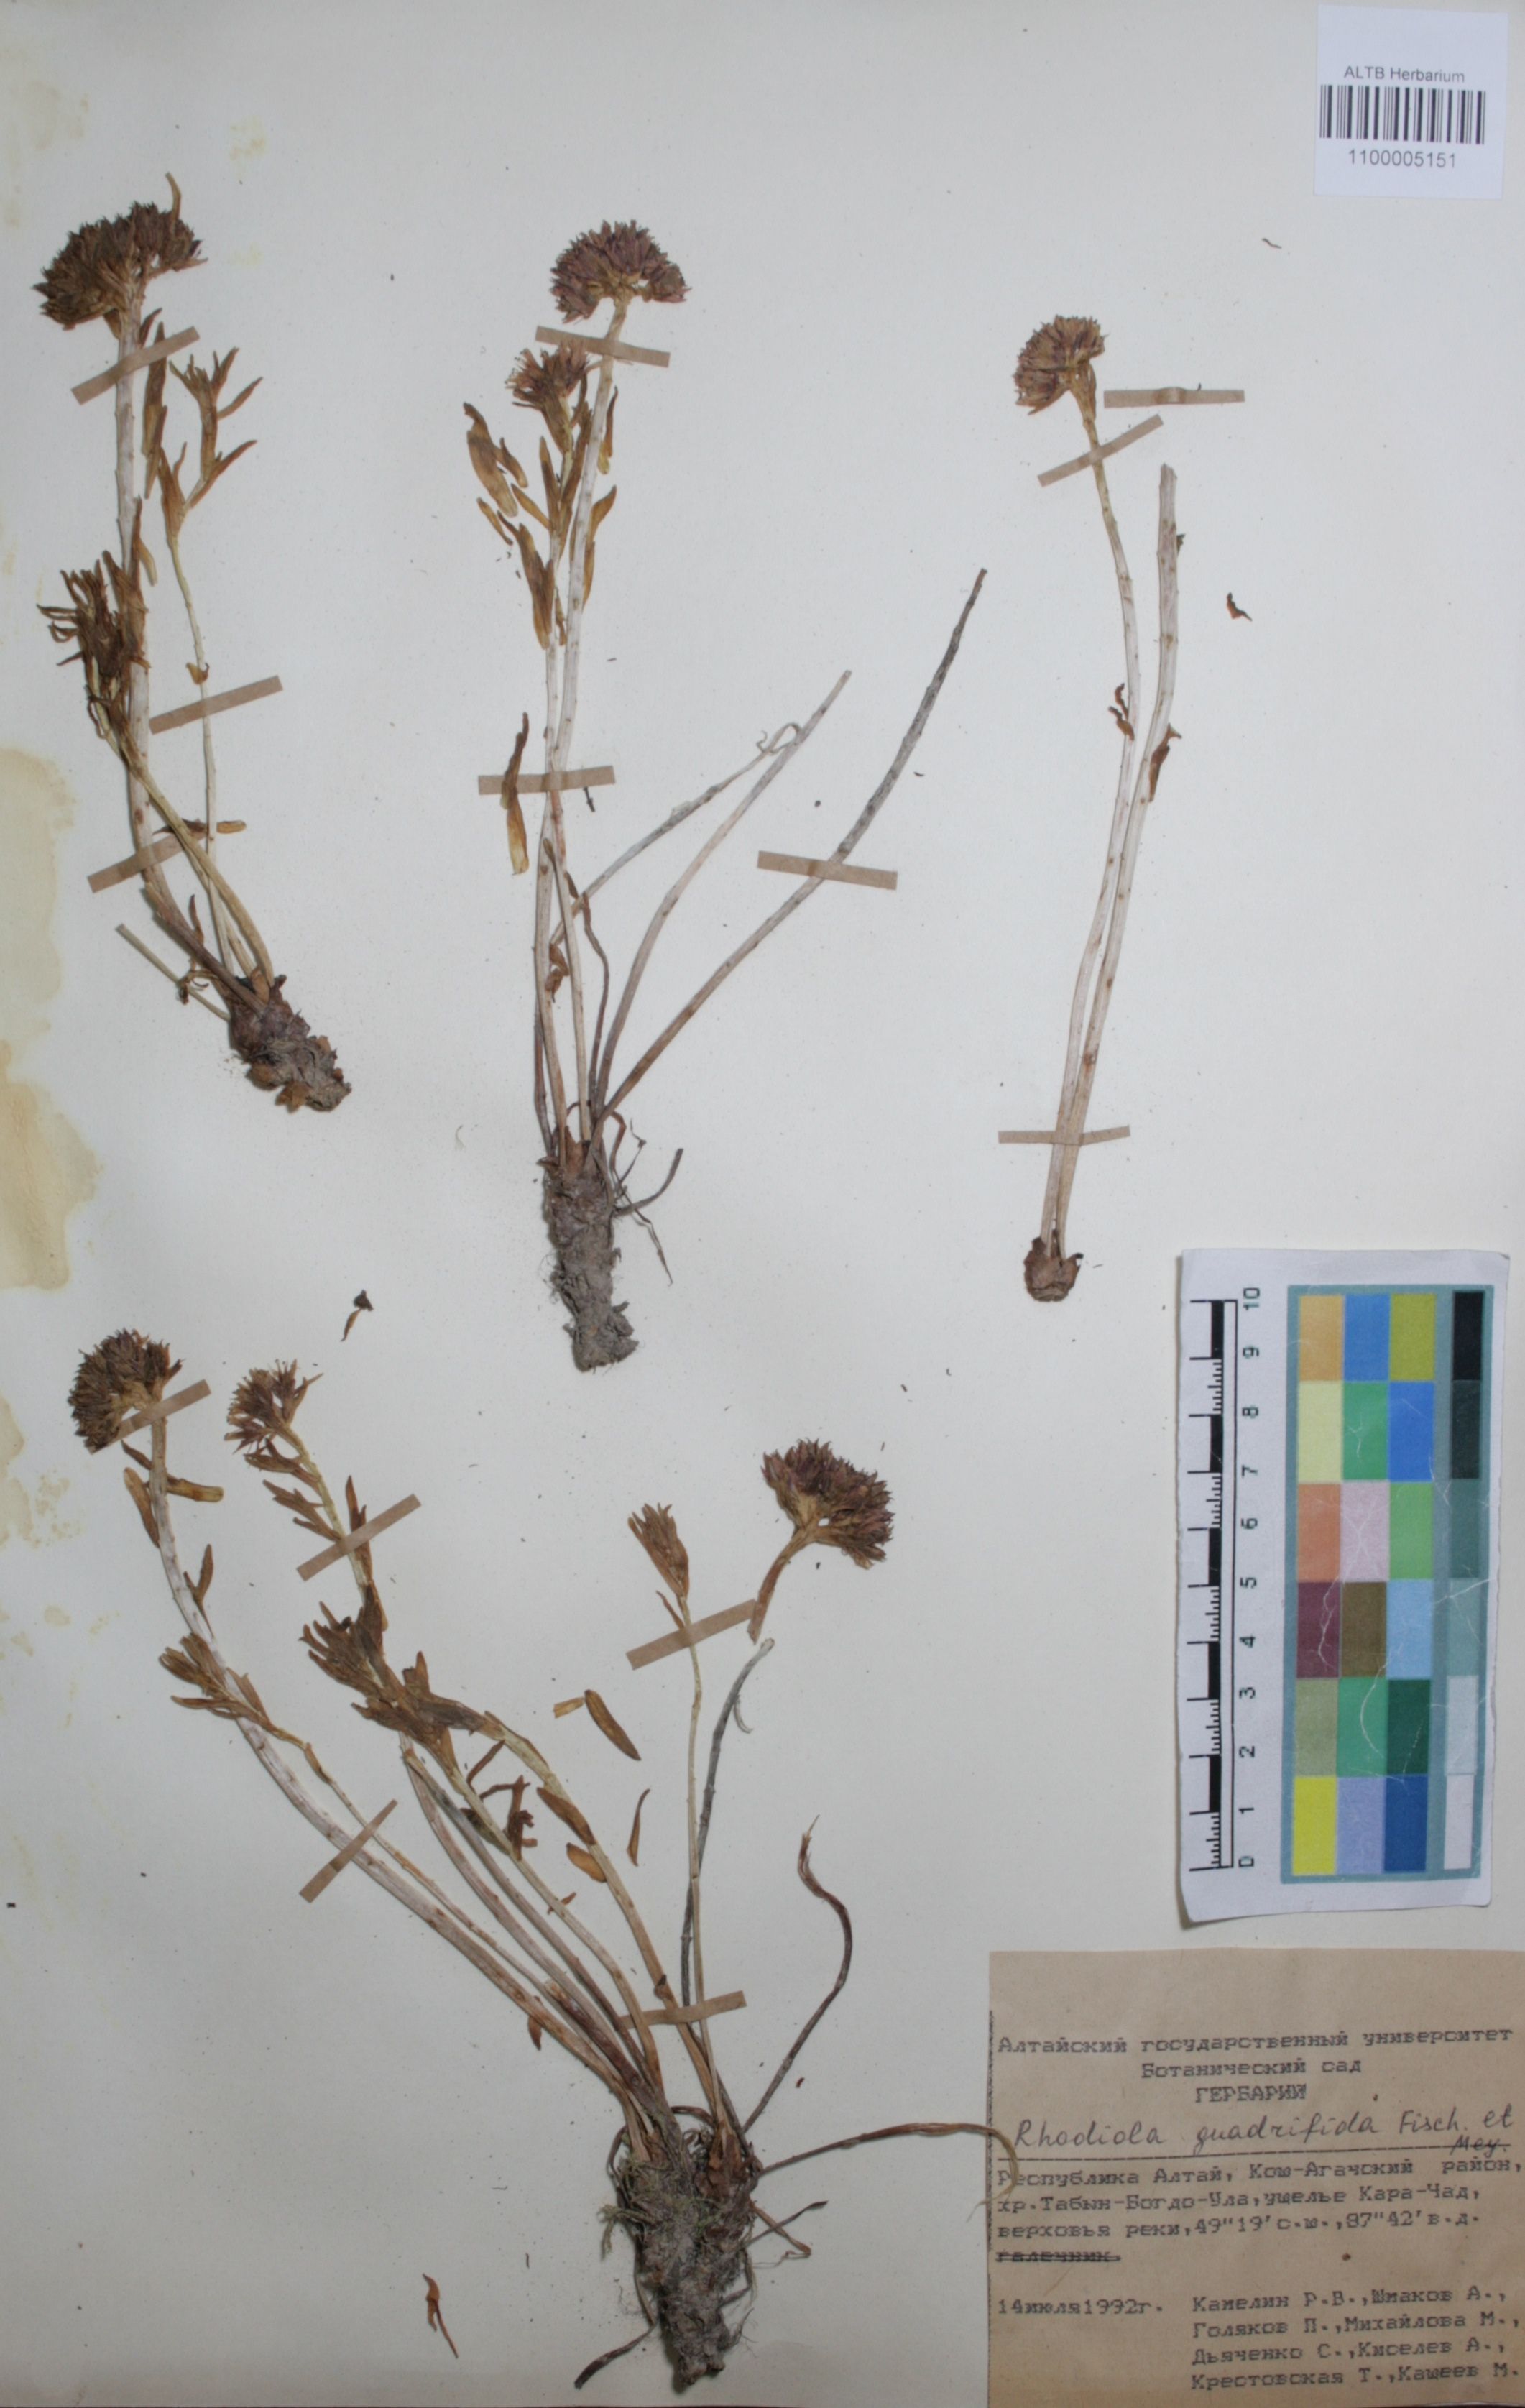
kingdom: Plantae
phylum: Tracheophyta
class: Magnoliopsida
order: Saxifragales
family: Crassulaceae
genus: Rhodiola
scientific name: Rhodiola quadrifida
